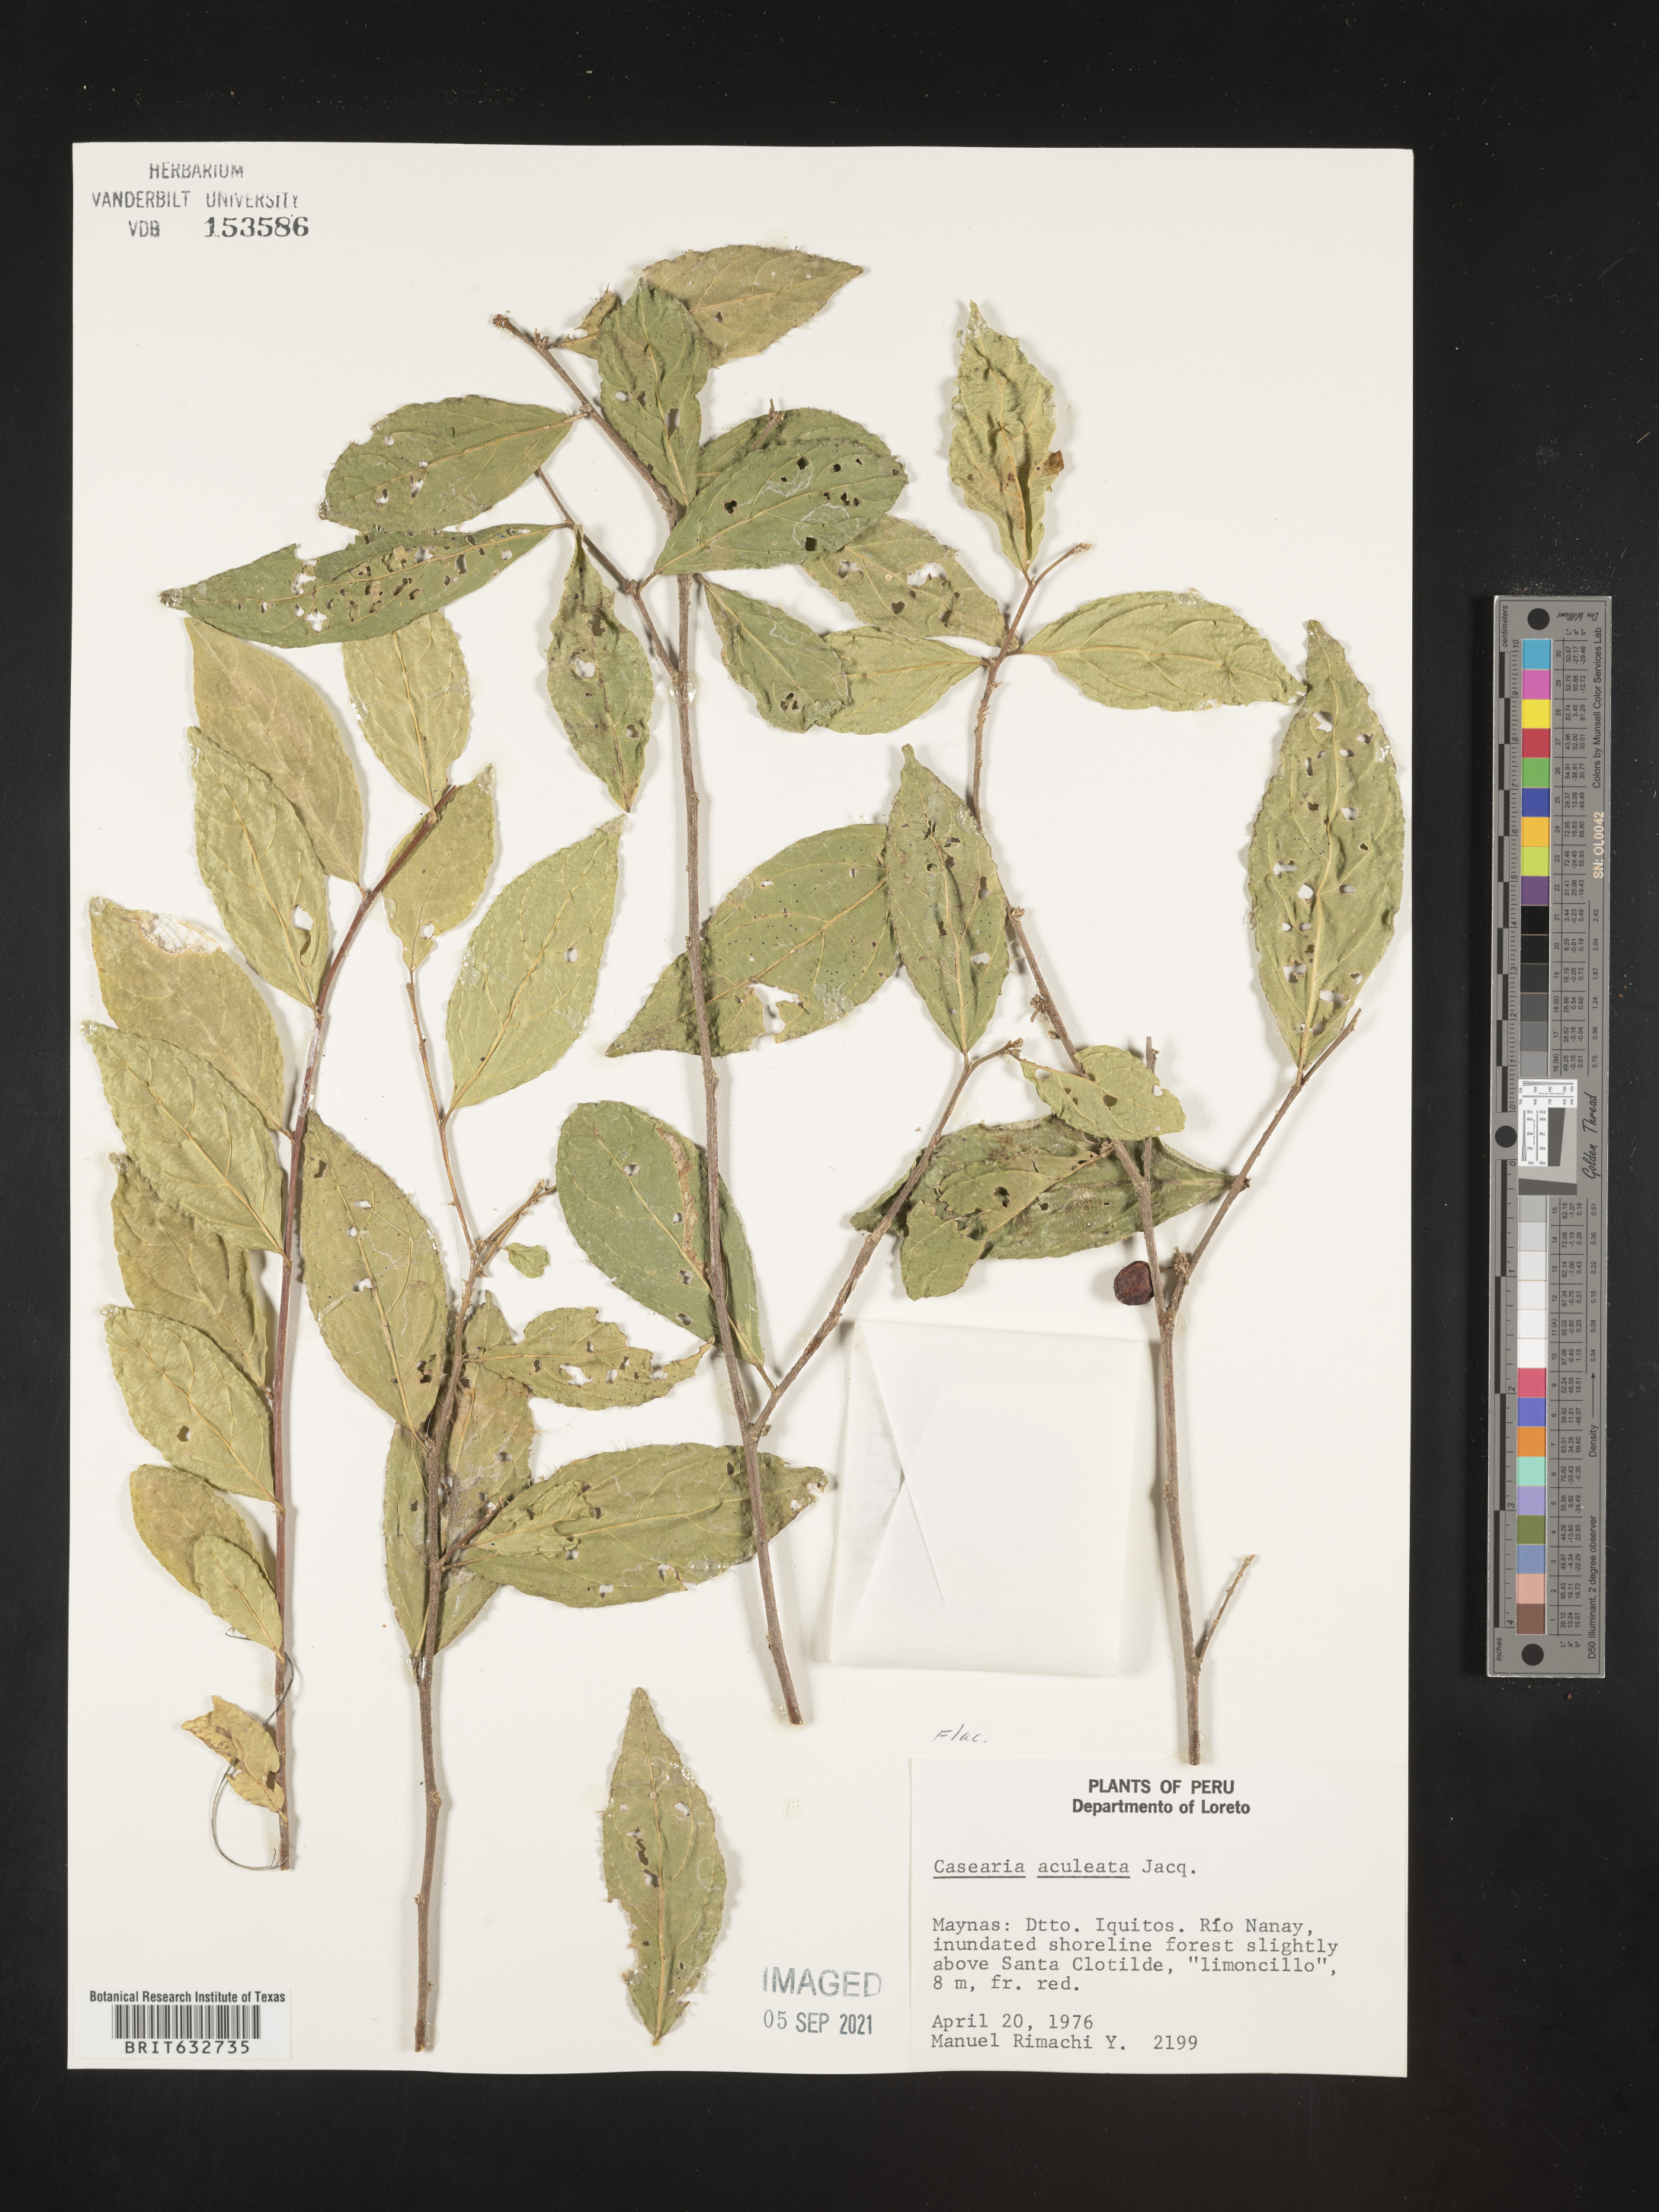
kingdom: Plantae
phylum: Tracheophyta
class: Magnoliopsida
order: Malpighiales
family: Salicaceae
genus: Casearia
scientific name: Casearia
